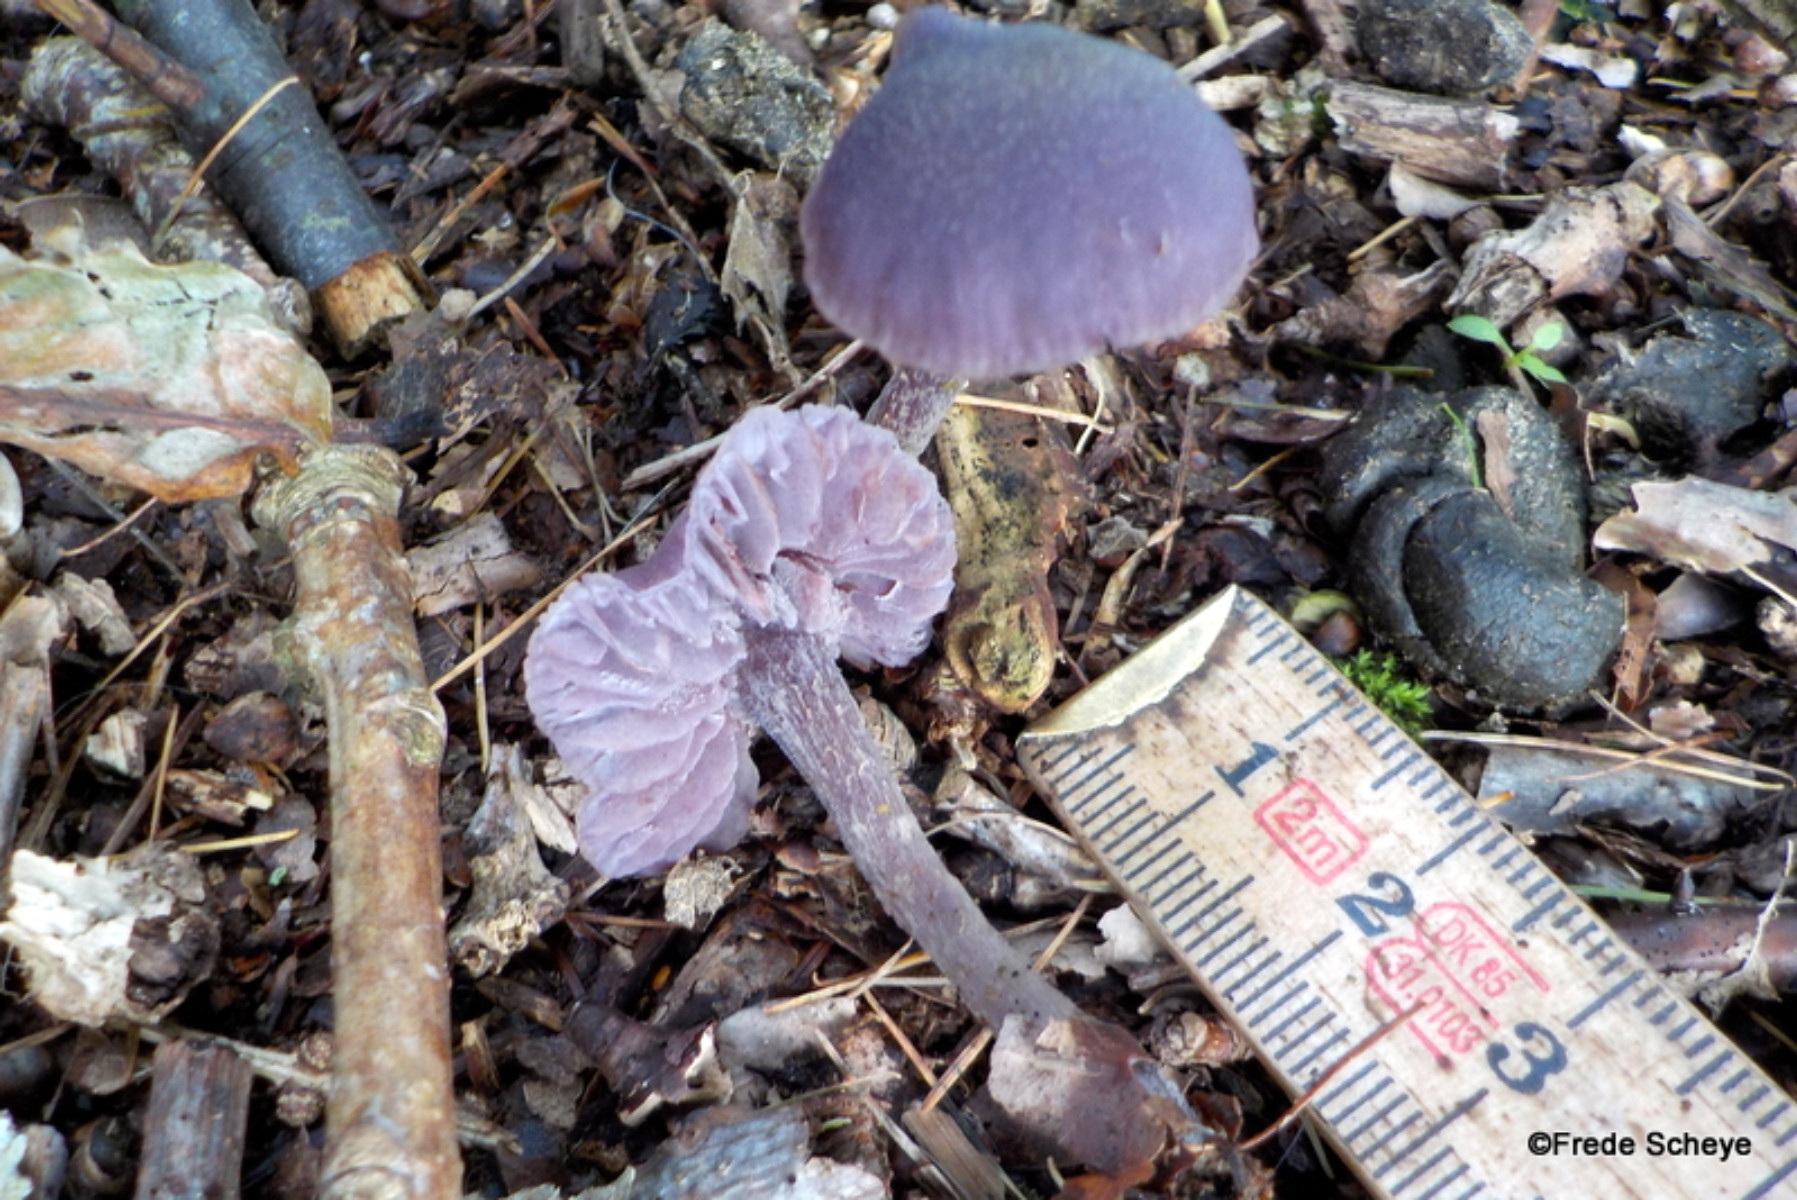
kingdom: Fungi
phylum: Basidiomycota
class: Agaricomycetes
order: Agaricales
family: Hydnangiaceae
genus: Laccaria
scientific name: Laccaria amethystina
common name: violet ametysthat
